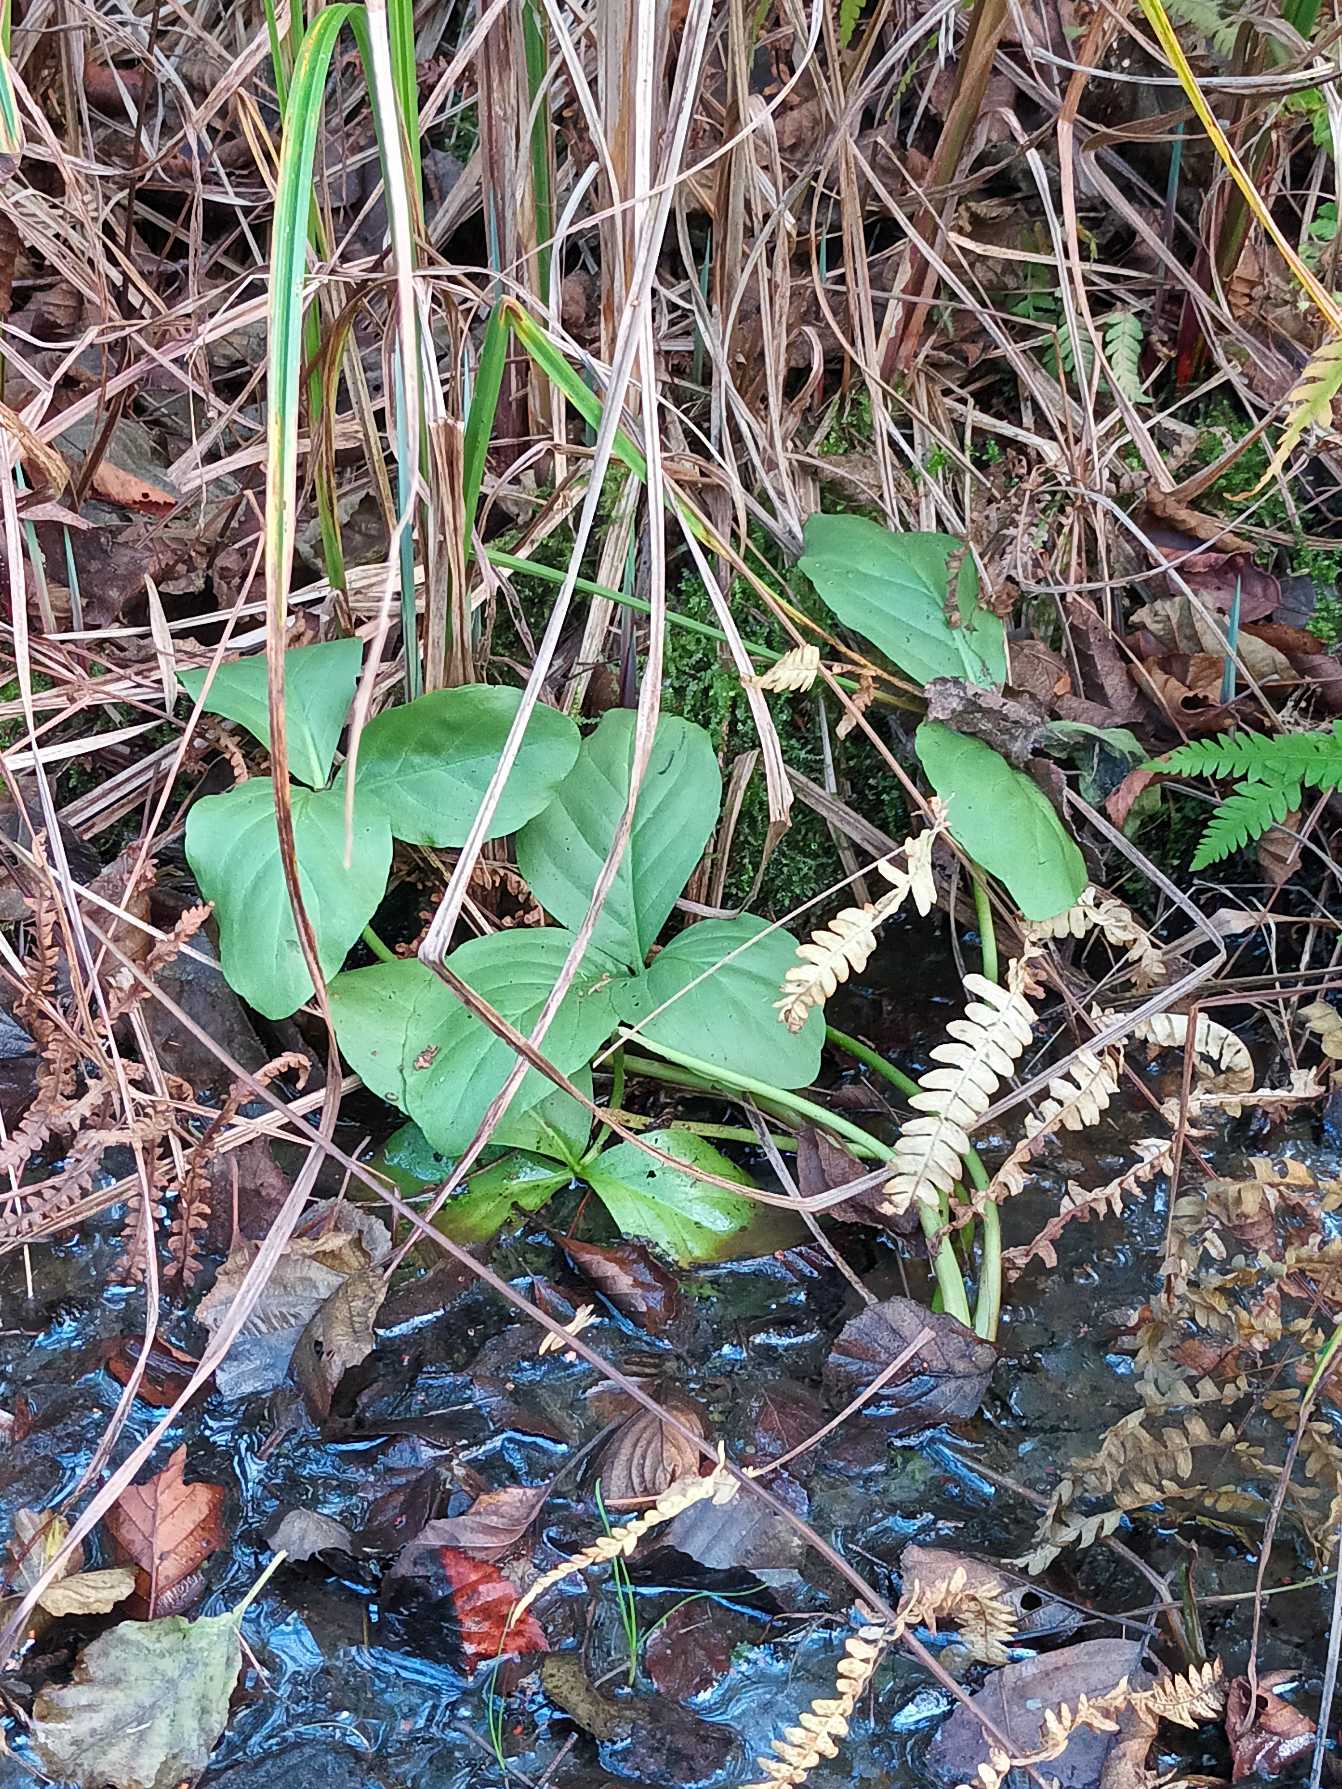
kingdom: Plantae
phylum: Tracheophyta
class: Magnoliopsida
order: Asterales
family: Menyanthaceae
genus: Menyanthes
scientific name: Menyanthes trifoliata
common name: Bukkeblad
